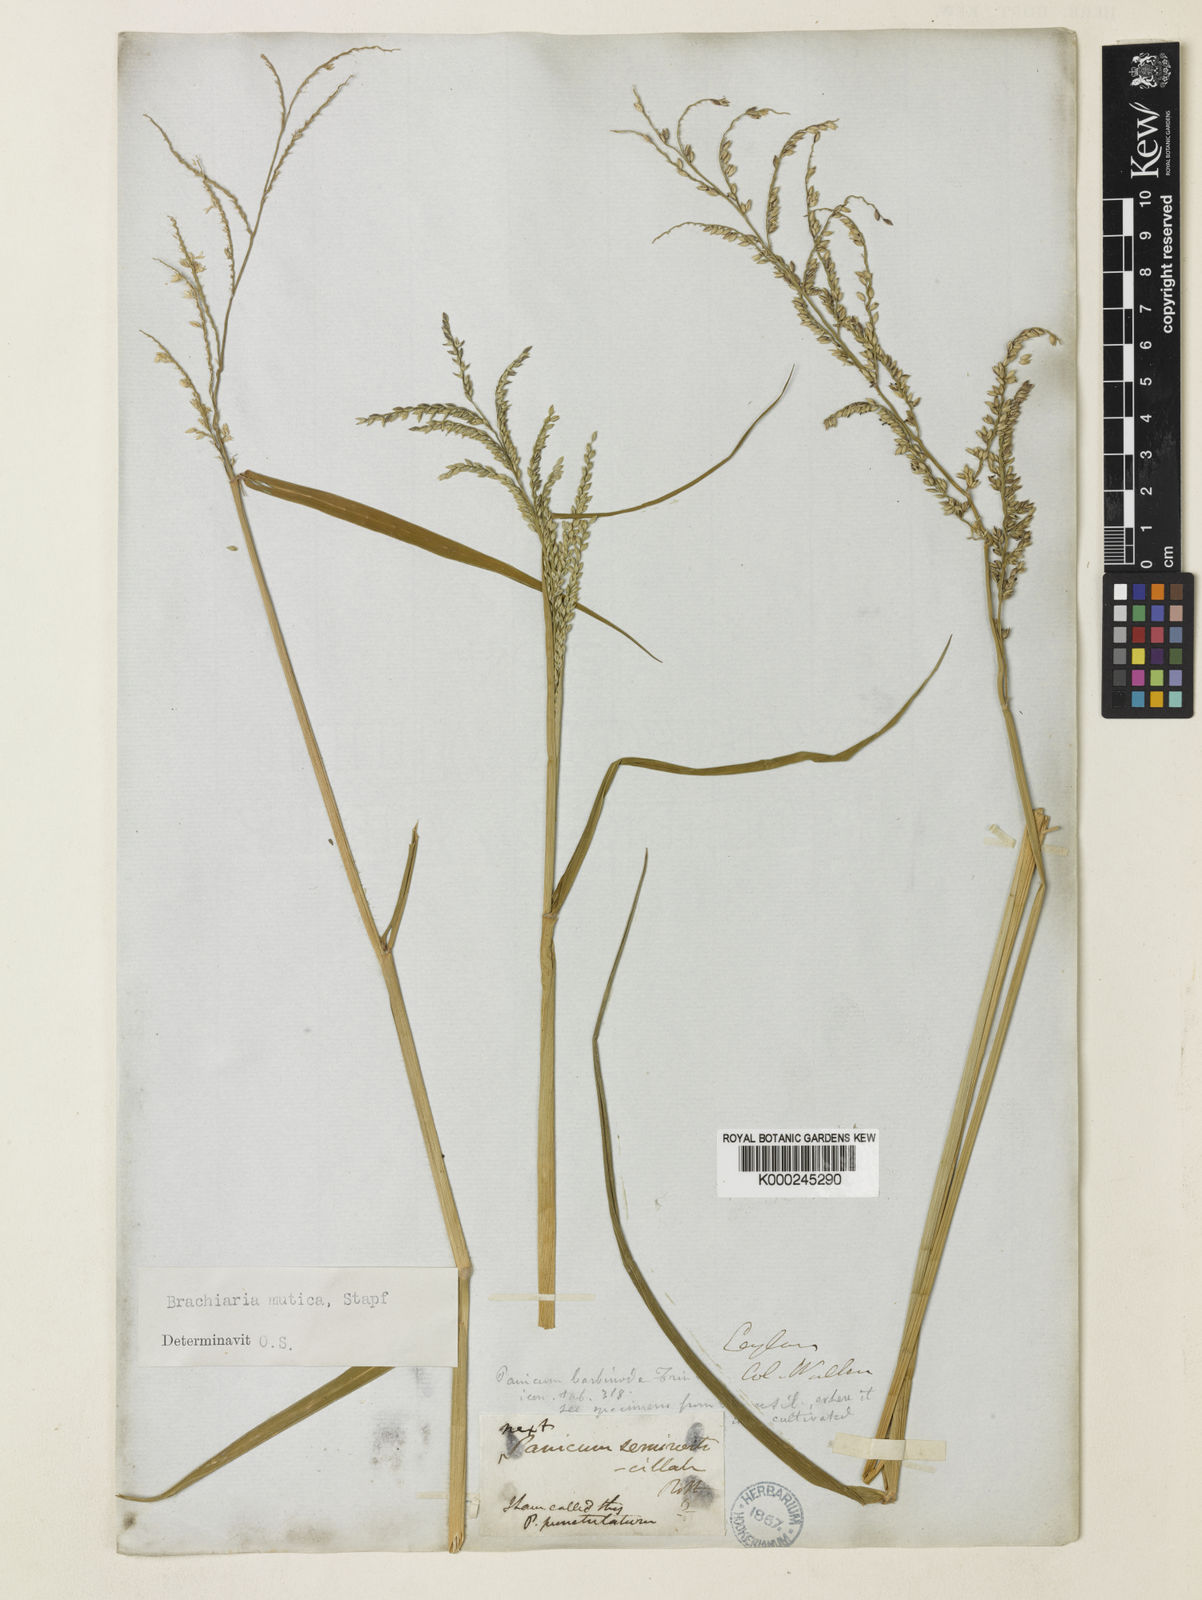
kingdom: Plantae
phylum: Tracheophyta
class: Liliopsida
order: Poales
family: Poaceae
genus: Urochloa
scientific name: Urochloa mutica
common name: Para grass
